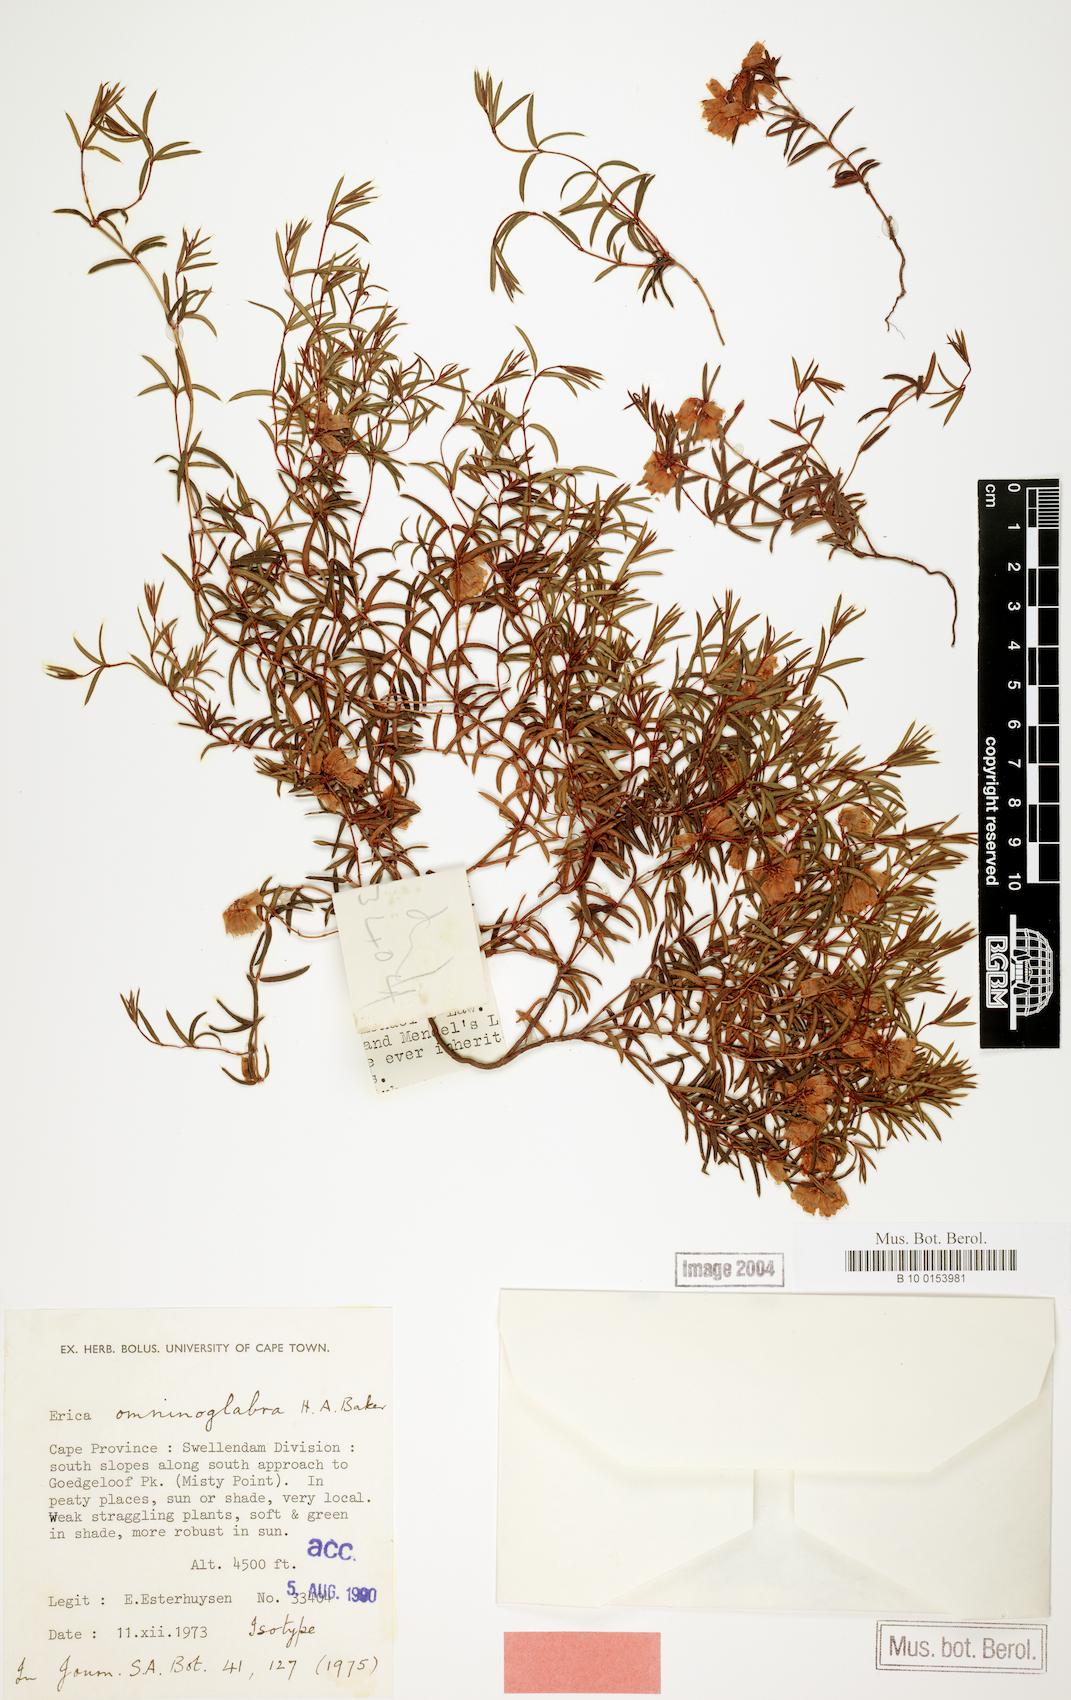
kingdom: Plantae
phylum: Tracheophyta
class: Magnoliopsida
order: Ericales
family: Ericaceae
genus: Erica
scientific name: Erica omninoglabra
